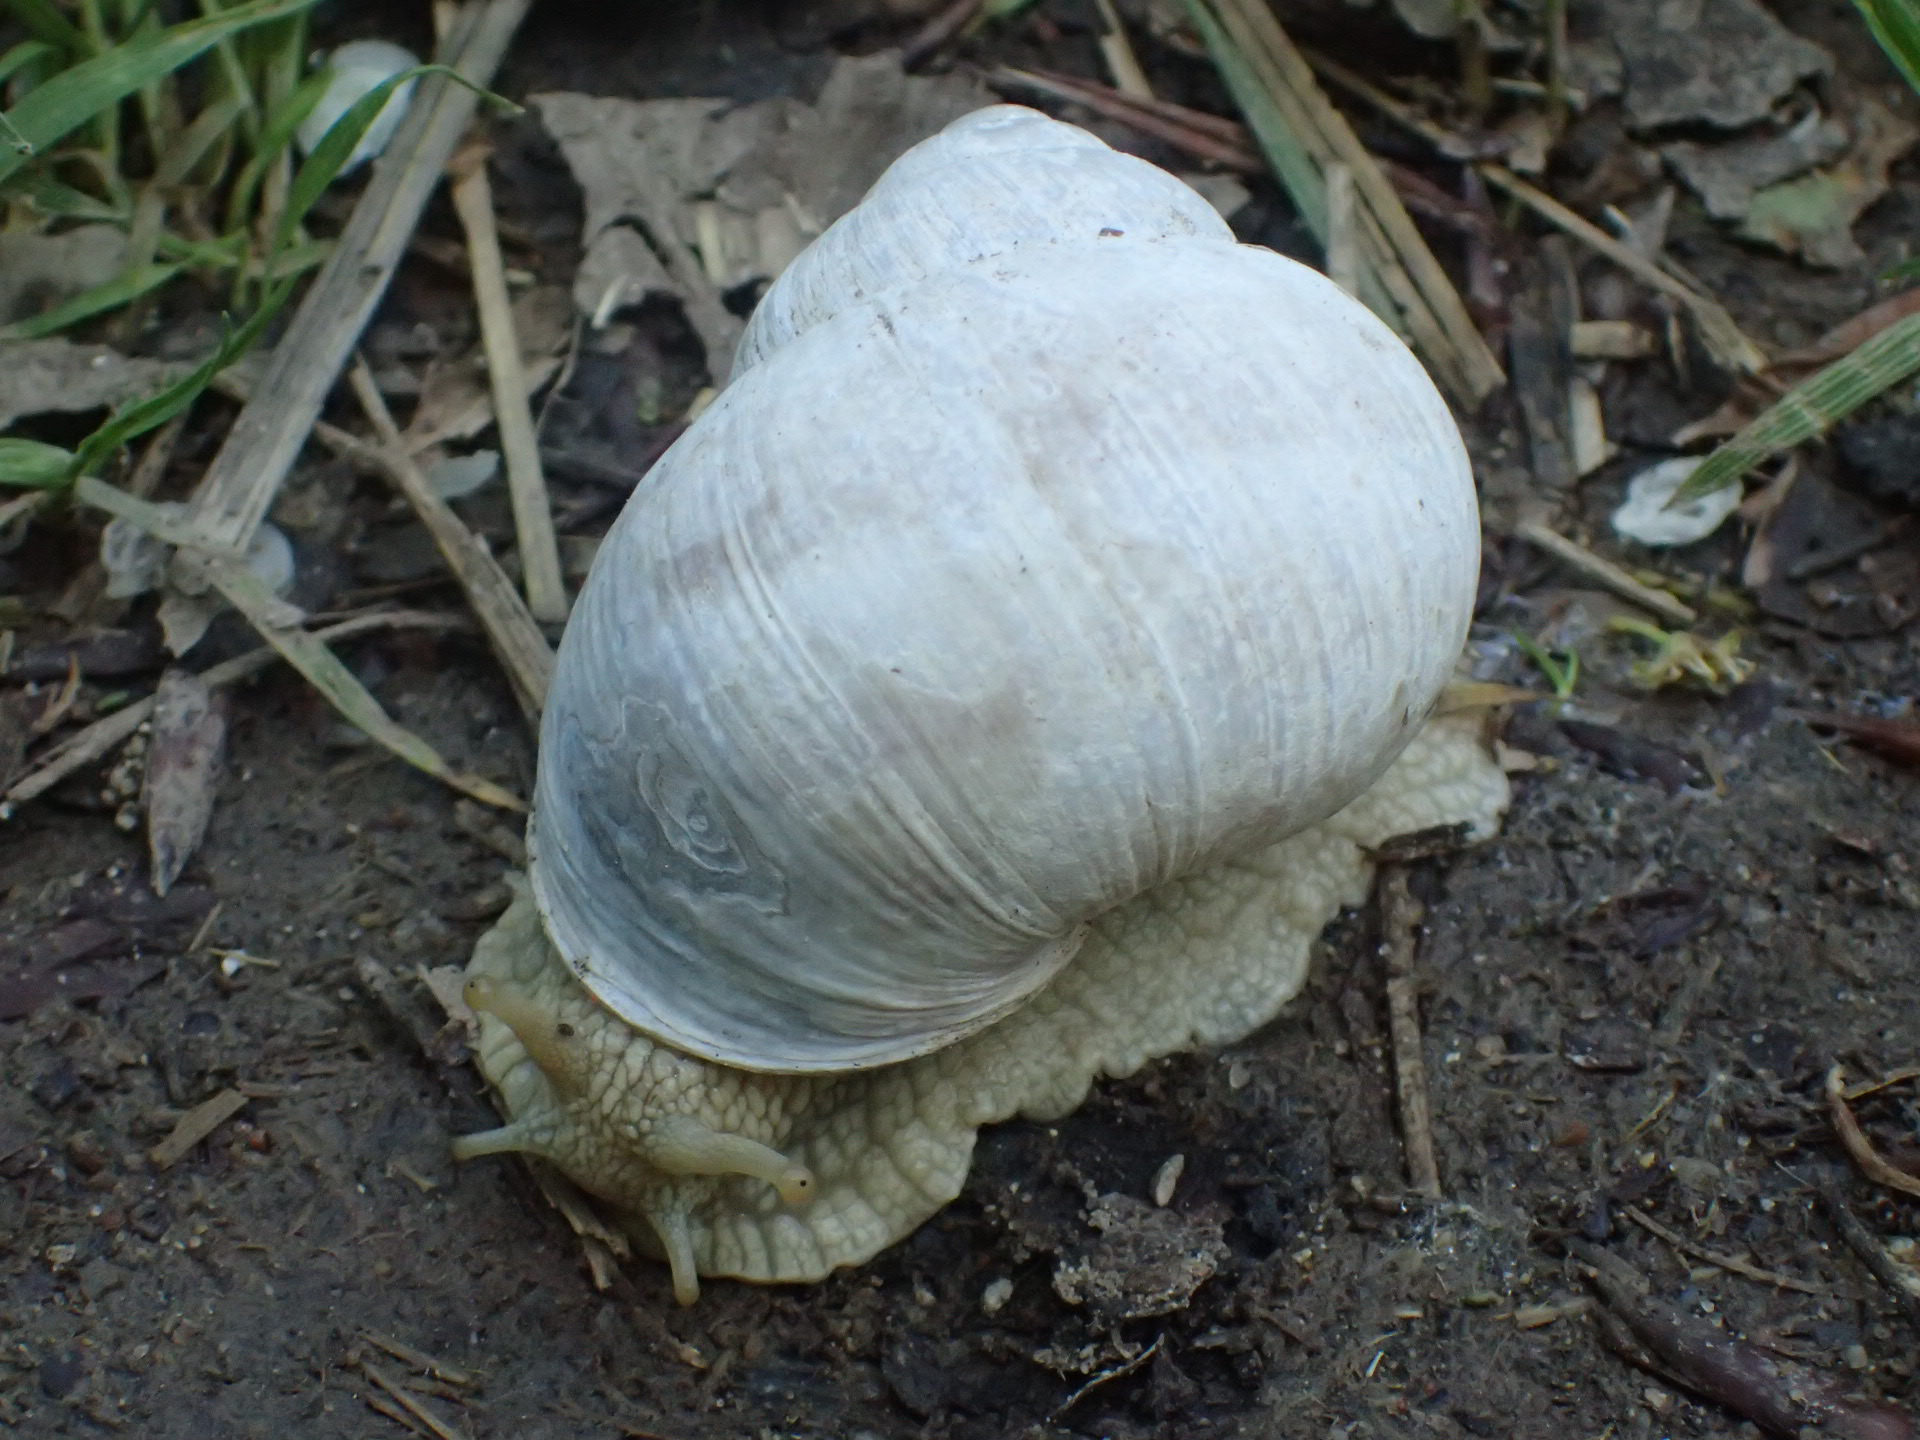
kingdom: Animalia
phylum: Mollusca
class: Gastropoda
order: Stylommatophora
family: Helicidae
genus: Helix
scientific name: Helix pomatia
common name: Vinbjergsnegl
